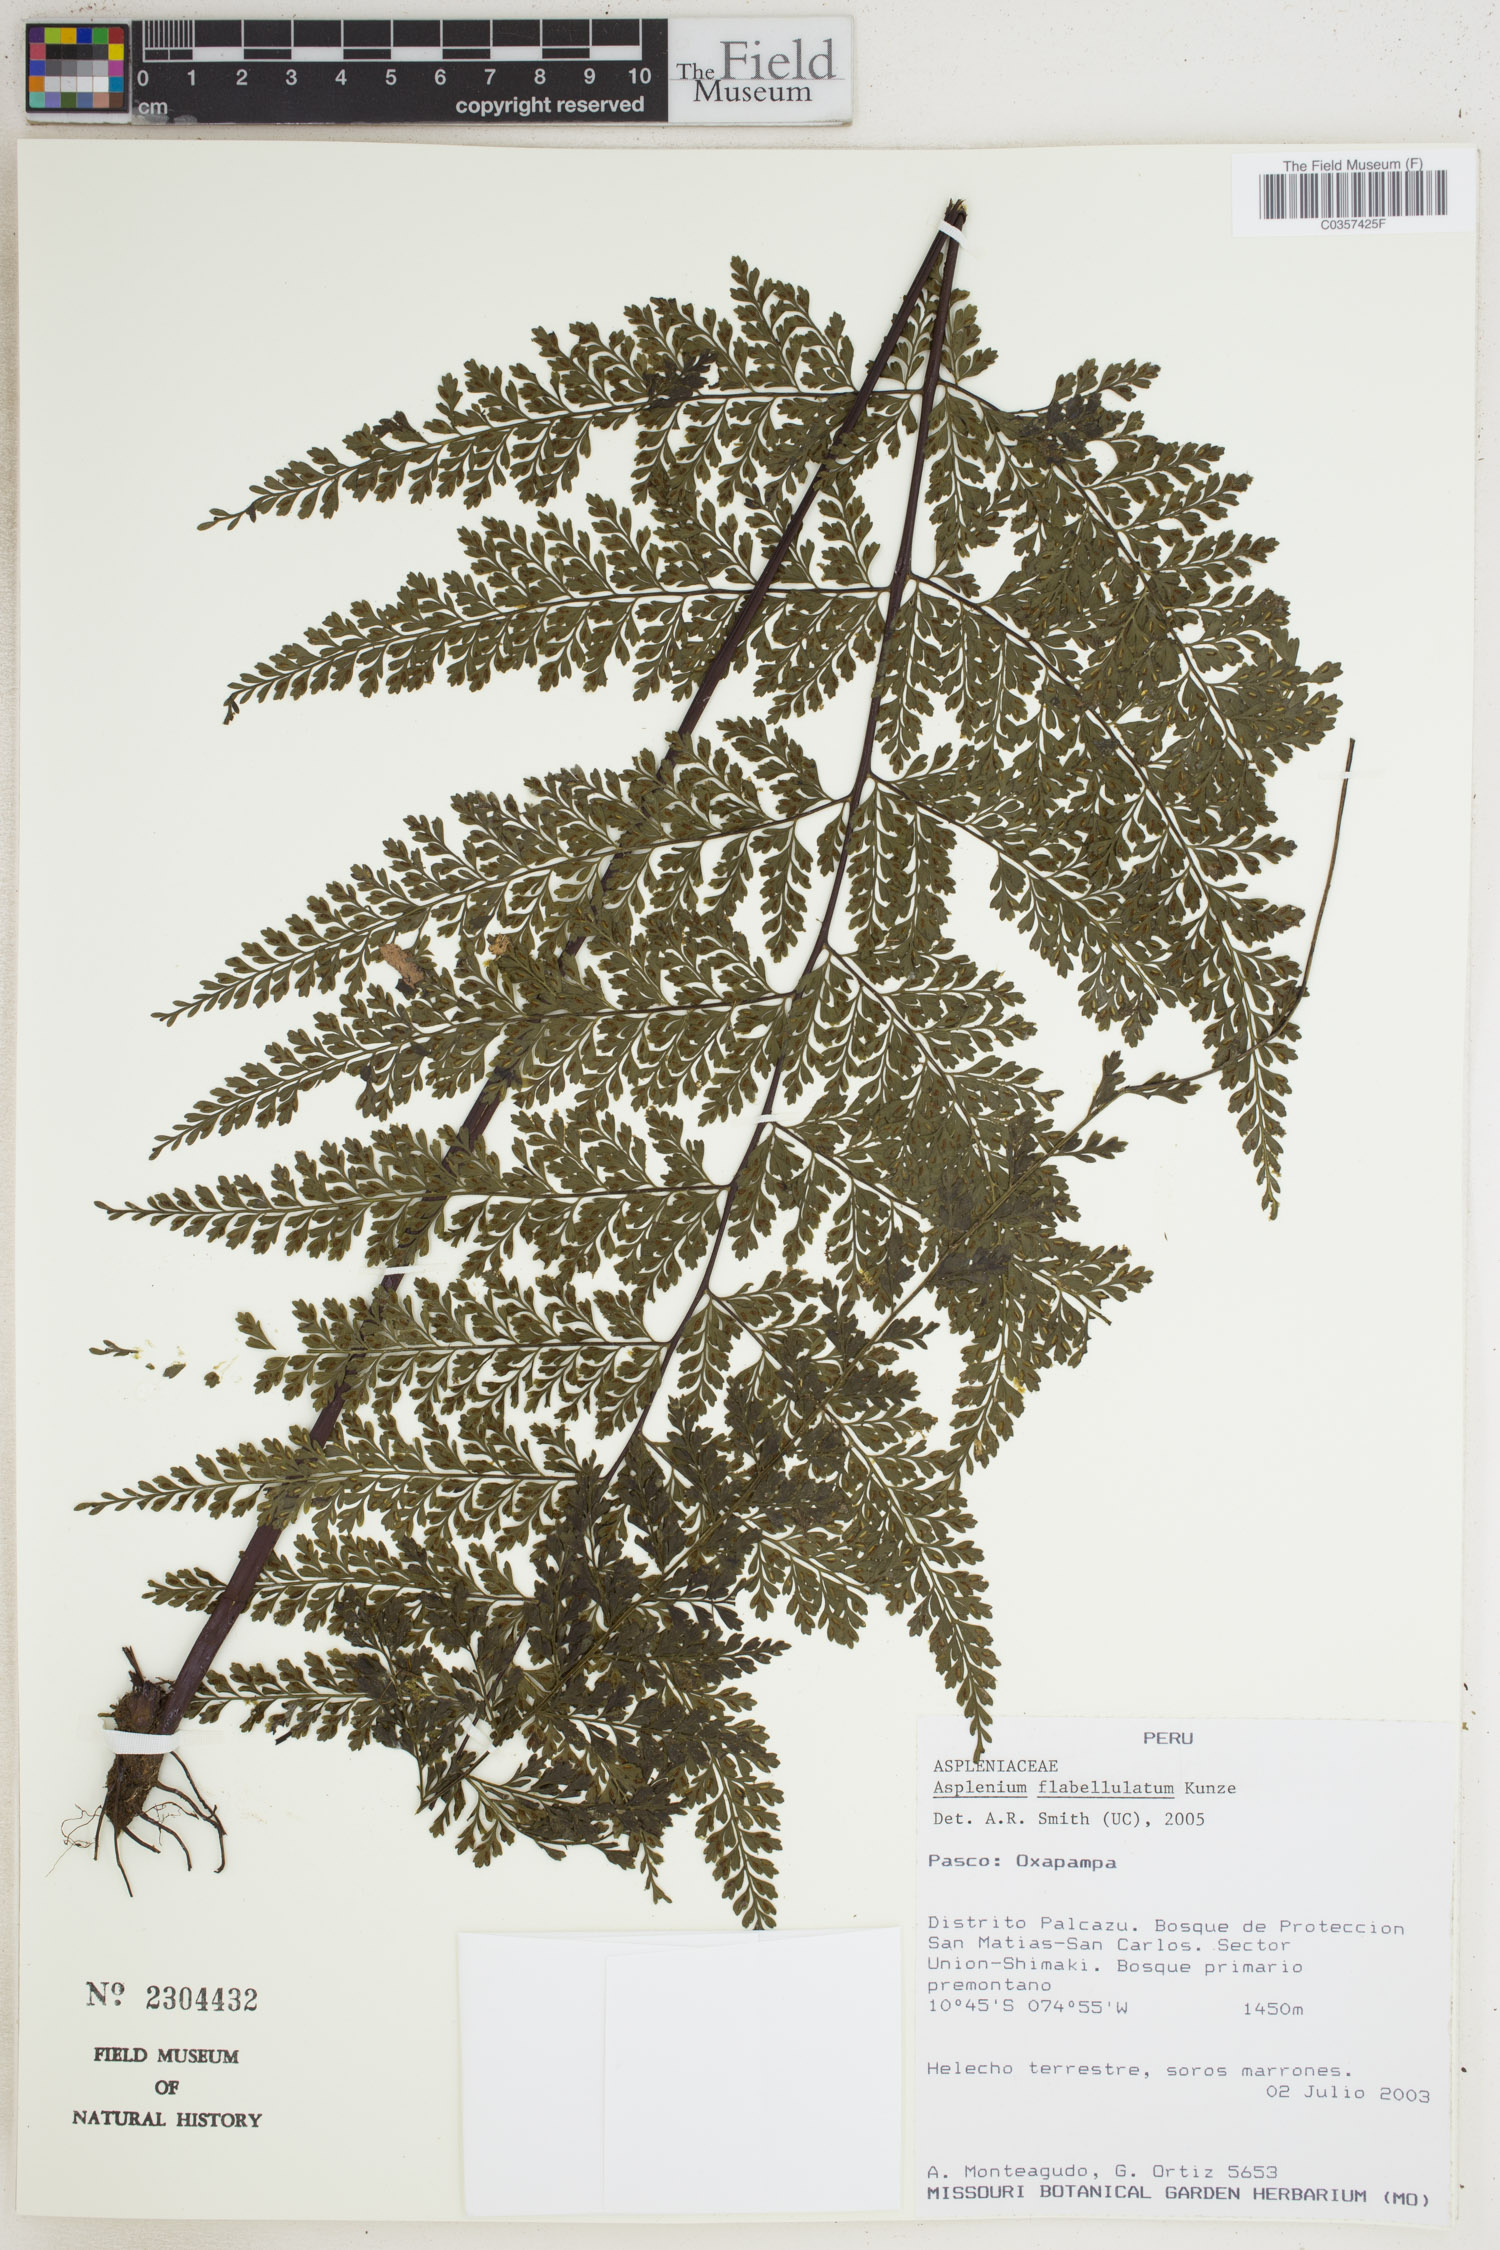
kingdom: Plantae
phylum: Tracheophyta
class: Polypodiopsida
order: Polypodiales
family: Aspleniaceae
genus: Asplenium
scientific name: Asplenium flabellulatum
